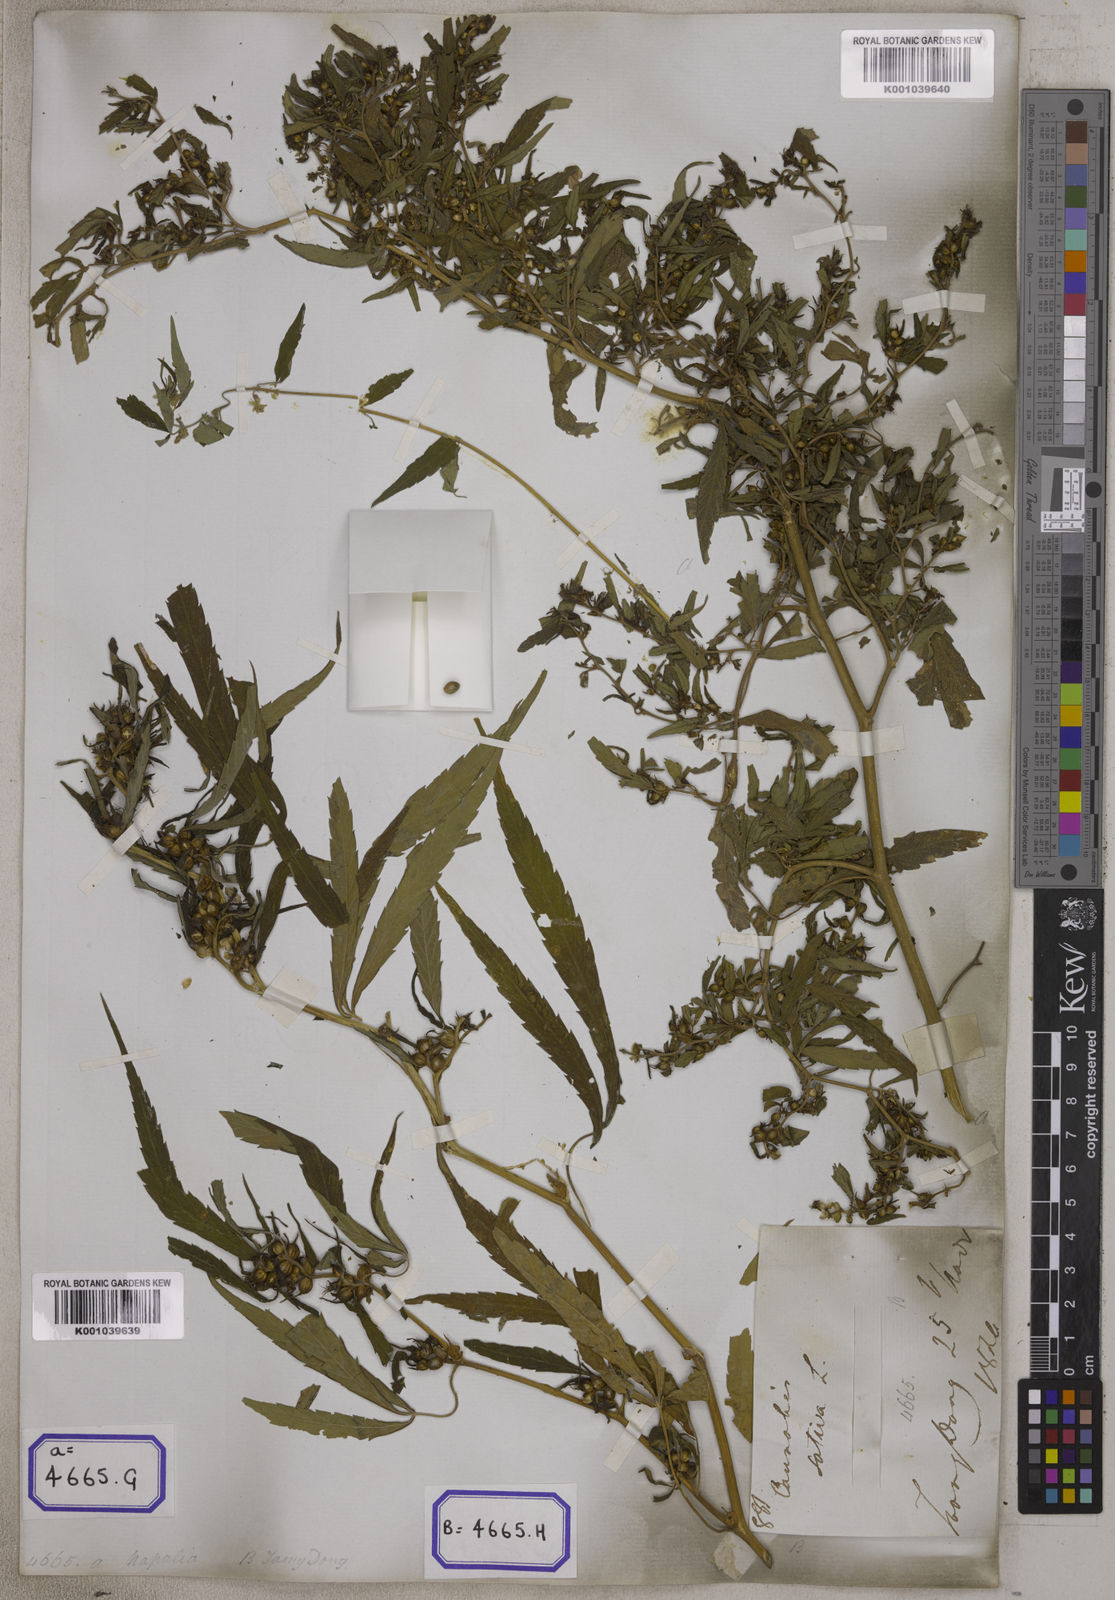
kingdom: Plantae
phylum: Tracheophyta
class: Magnoliopsida
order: Rosales
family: Cannabaceae
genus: Cannabis
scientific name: Cannabis sativa
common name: Hemp
